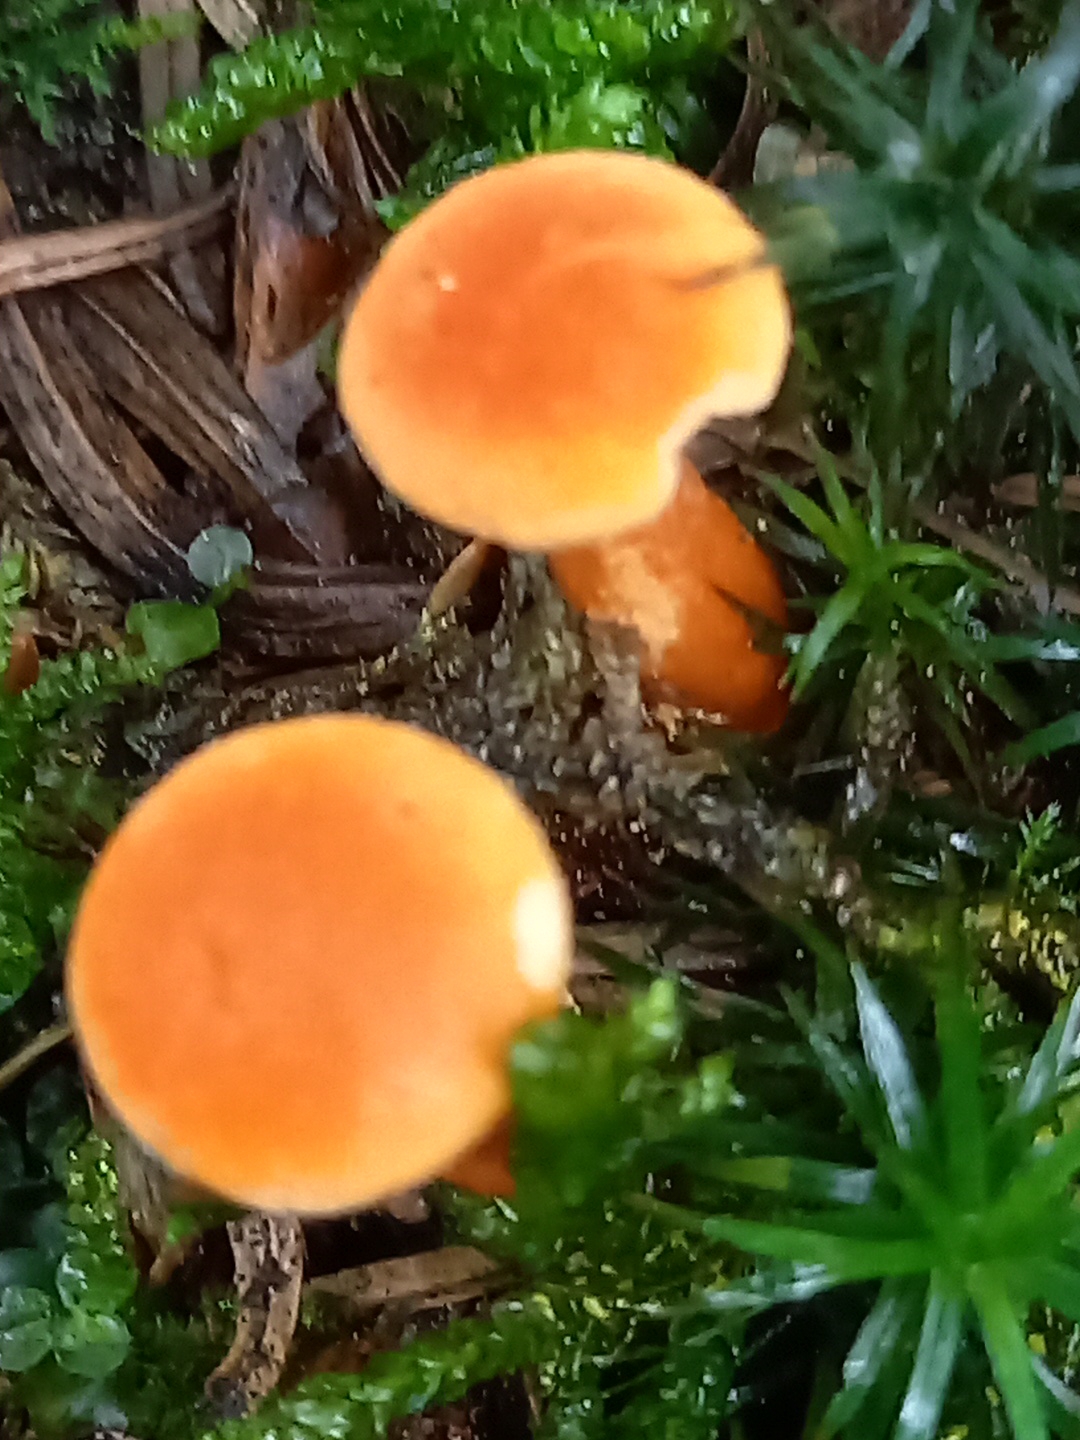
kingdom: Fungi
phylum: Basidiomycota
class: Agaricomycetes
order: Boletales
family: Hygrophoropsidaceae
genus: Hygrophoropsis
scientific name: Hygrophoropsis aurantiaca
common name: almindelig orangekantarel
